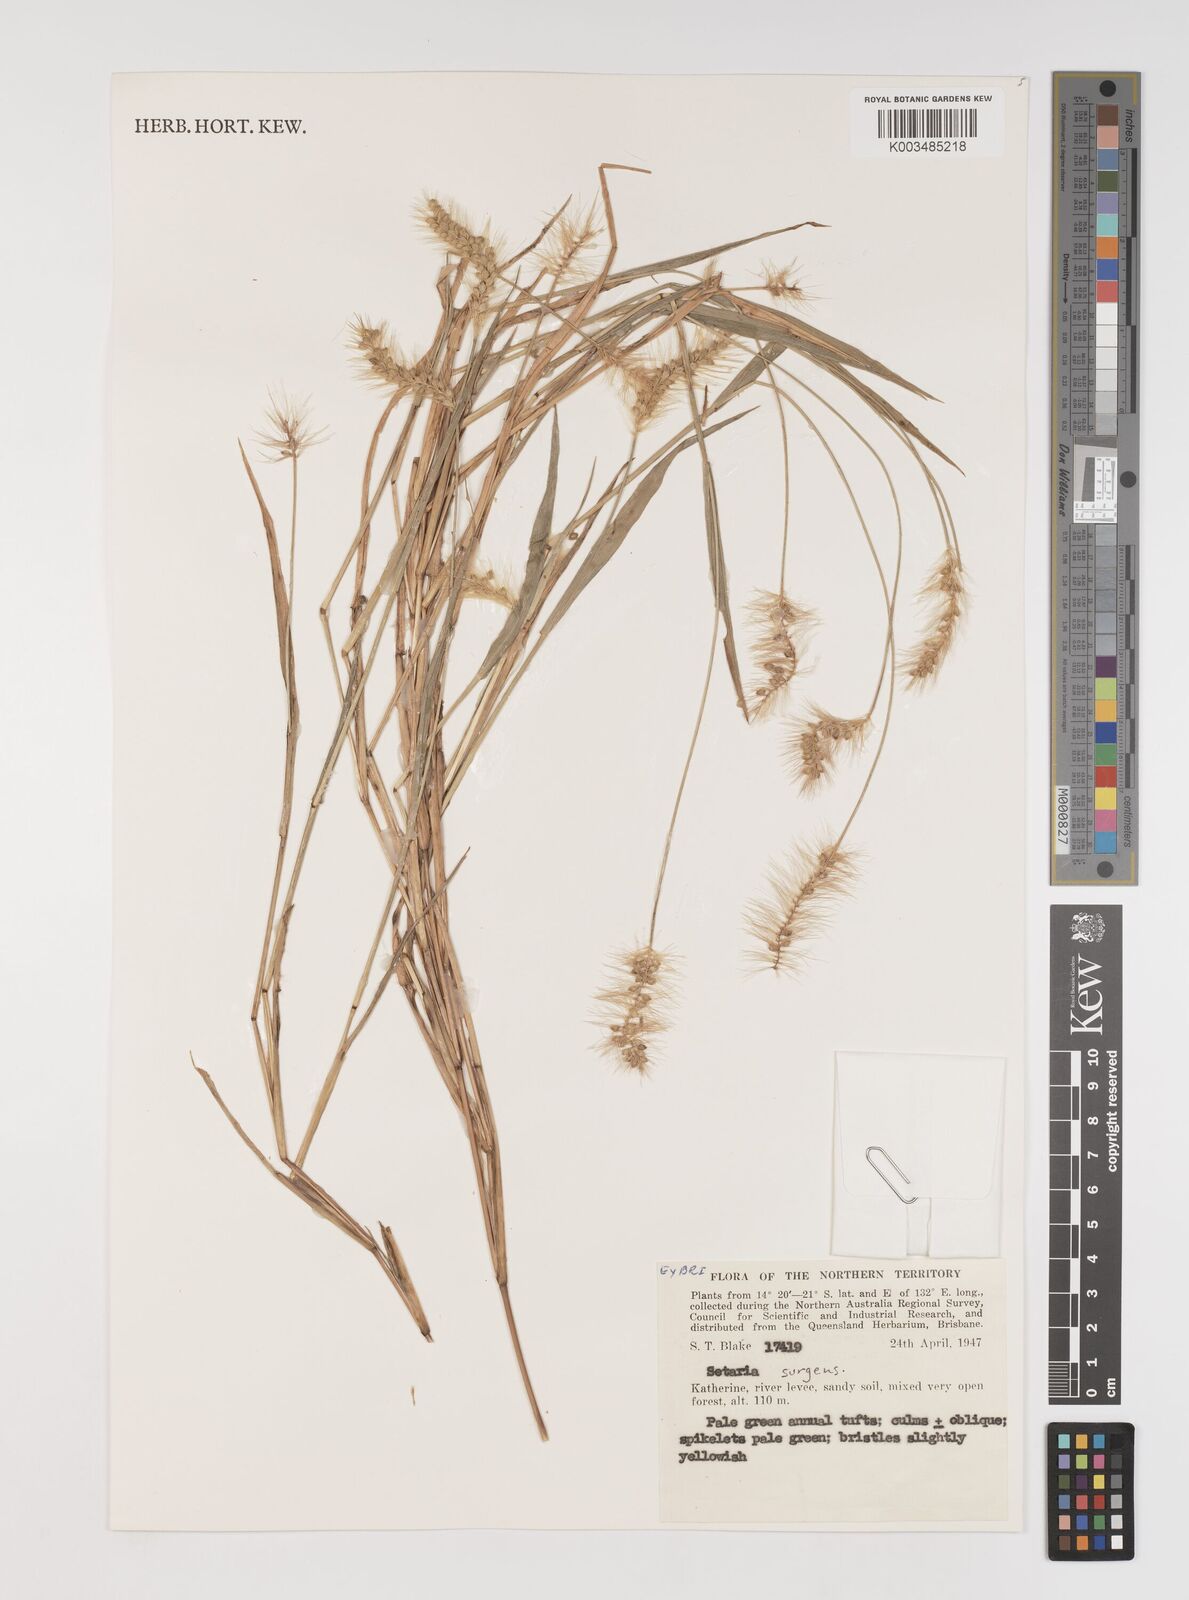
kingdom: Plantae
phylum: Tracheophyta
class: Liliopsida
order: Poales
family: Poaceae
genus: Setaria
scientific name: Setaria surgens
